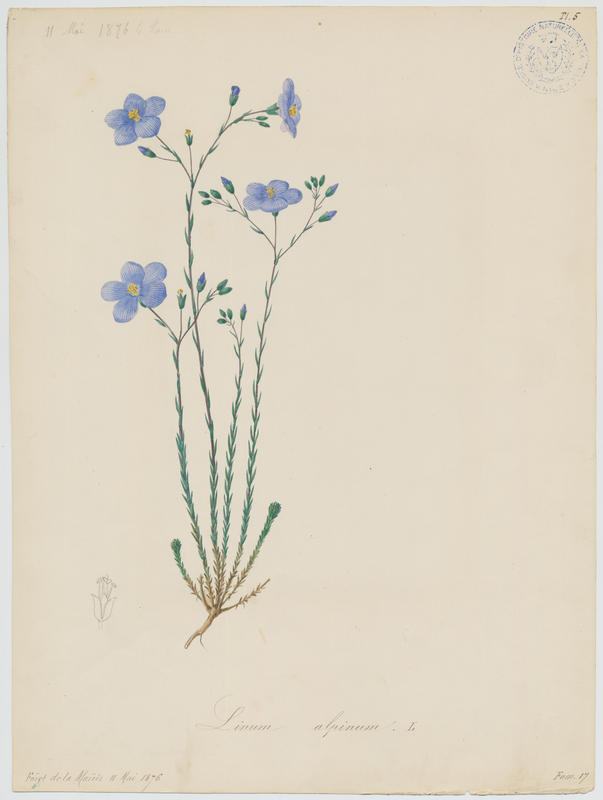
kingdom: Plantae
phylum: Tracheophyta
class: Magnoliopsida
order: Malpighiales
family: Linaceae
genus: Linum
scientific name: Linum alpinum
